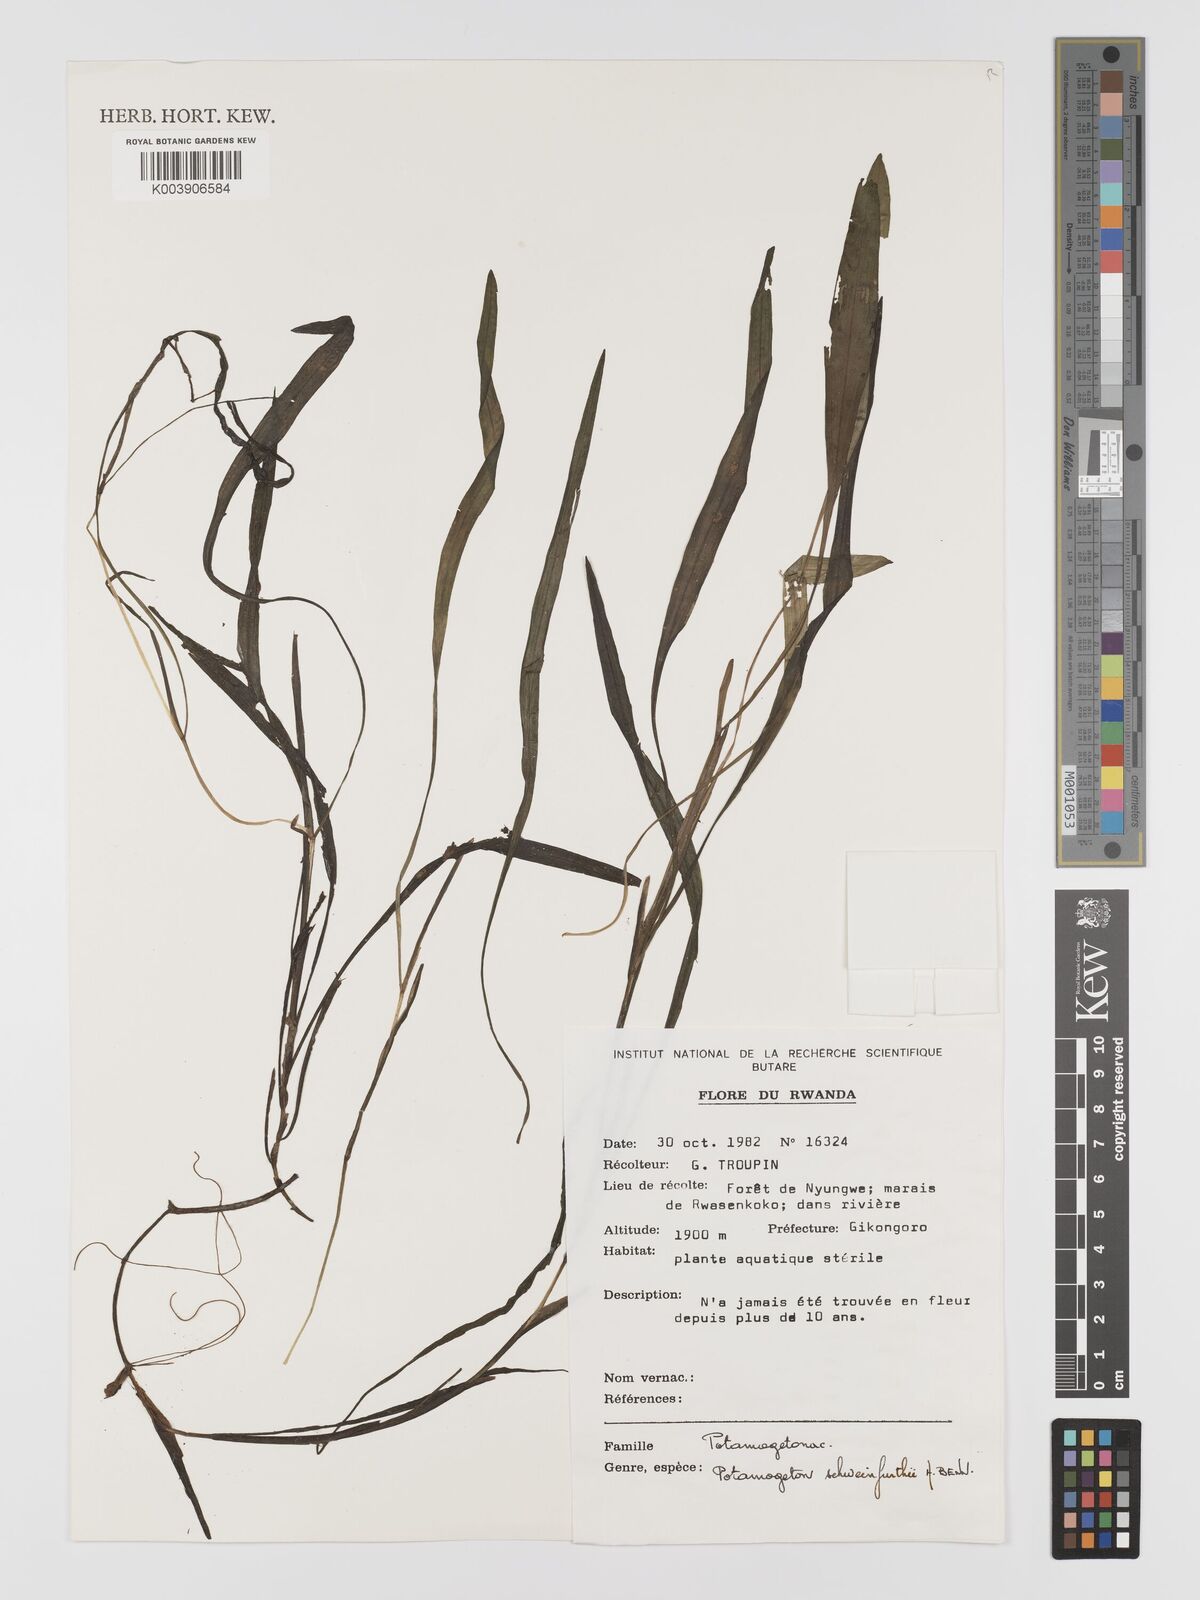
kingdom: Plantae
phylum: Tracheophyta
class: Liliopsida
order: Alismatales
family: Potamogetonaceae
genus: Potamogeton
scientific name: Potamogeton schweinfurthii
